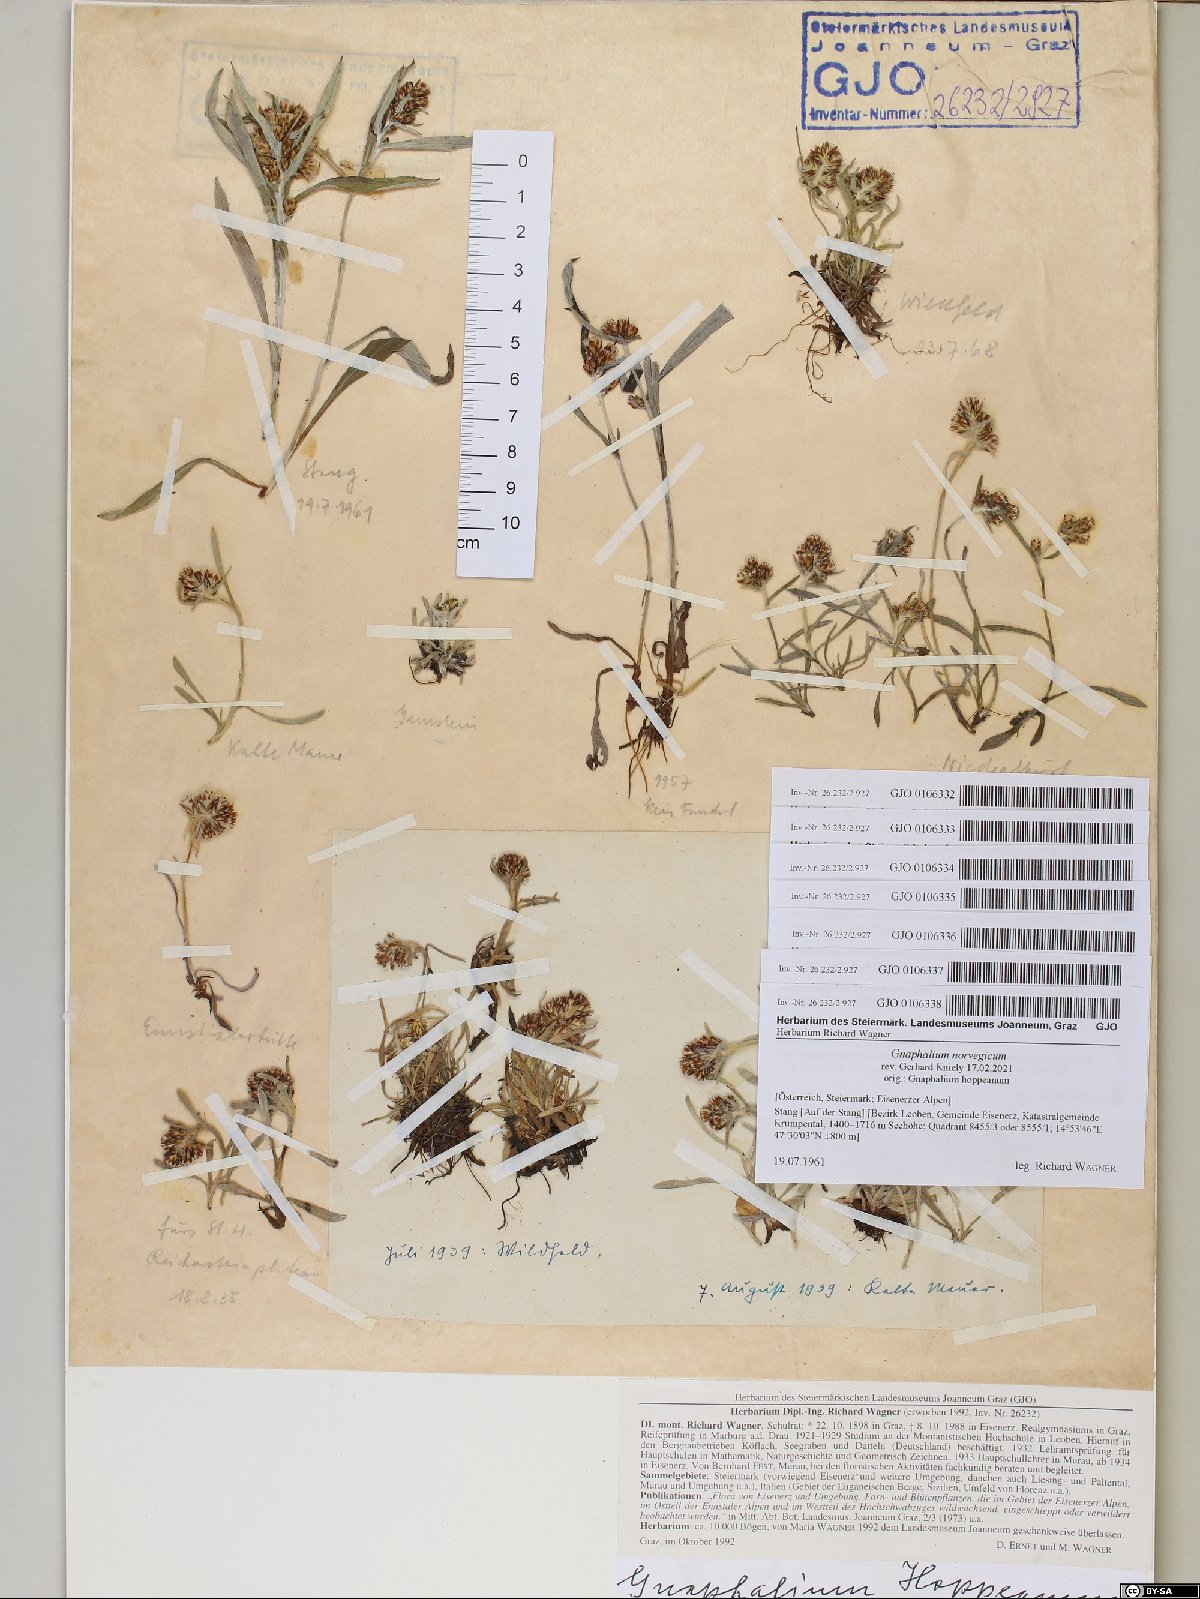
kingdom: Plantae
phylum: Tracheophyta
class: Magnoliopsida
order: Asterales
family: Asteraceae
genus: Omalotheca
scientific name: Omalotheca hoppeana
